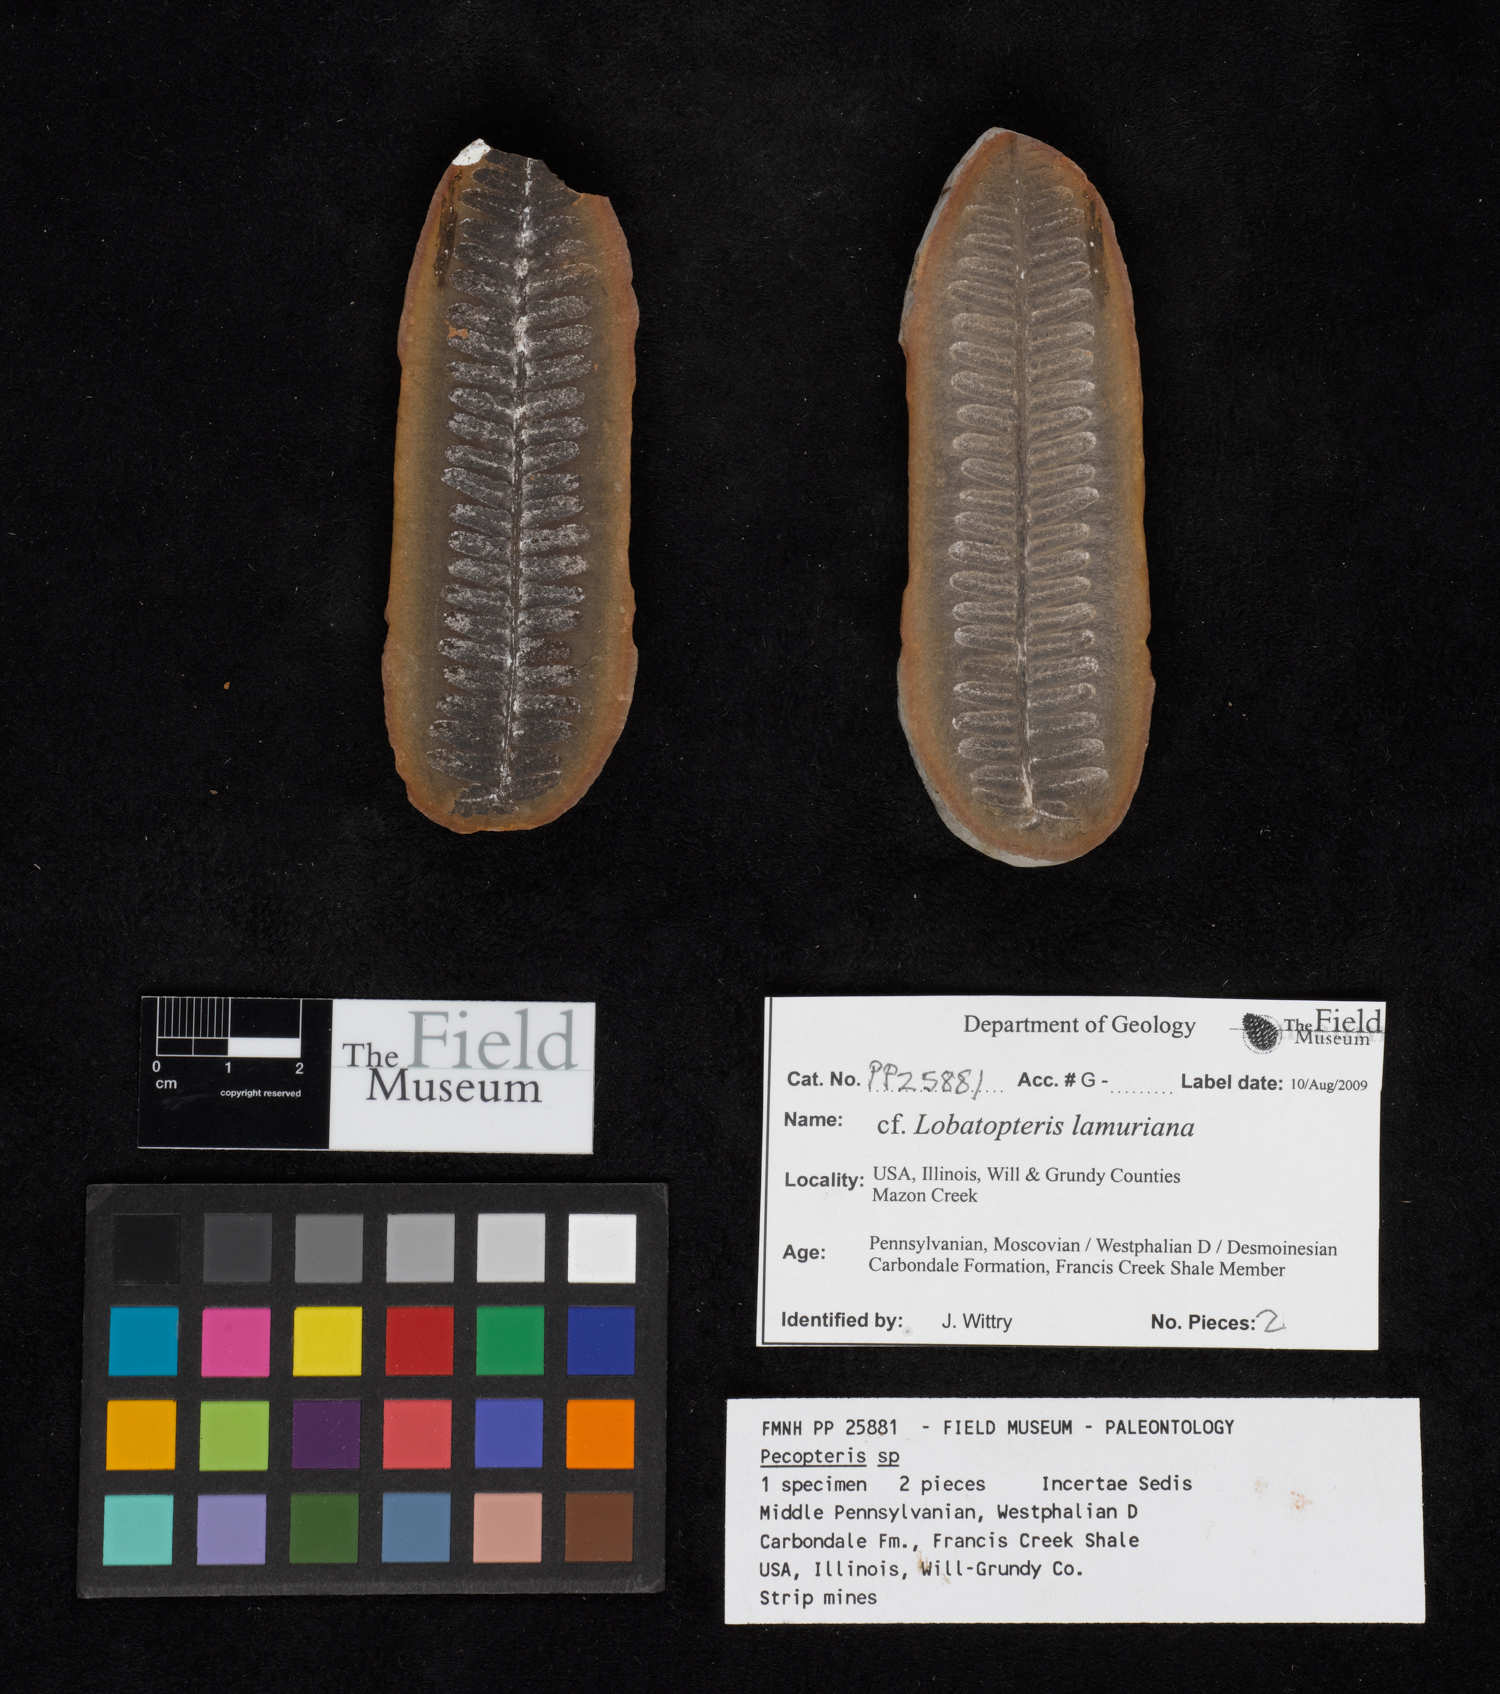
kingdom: Plantae
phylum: Tracheophyta
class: Polypodiopsida
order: Marattiales
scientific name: Marattiales
